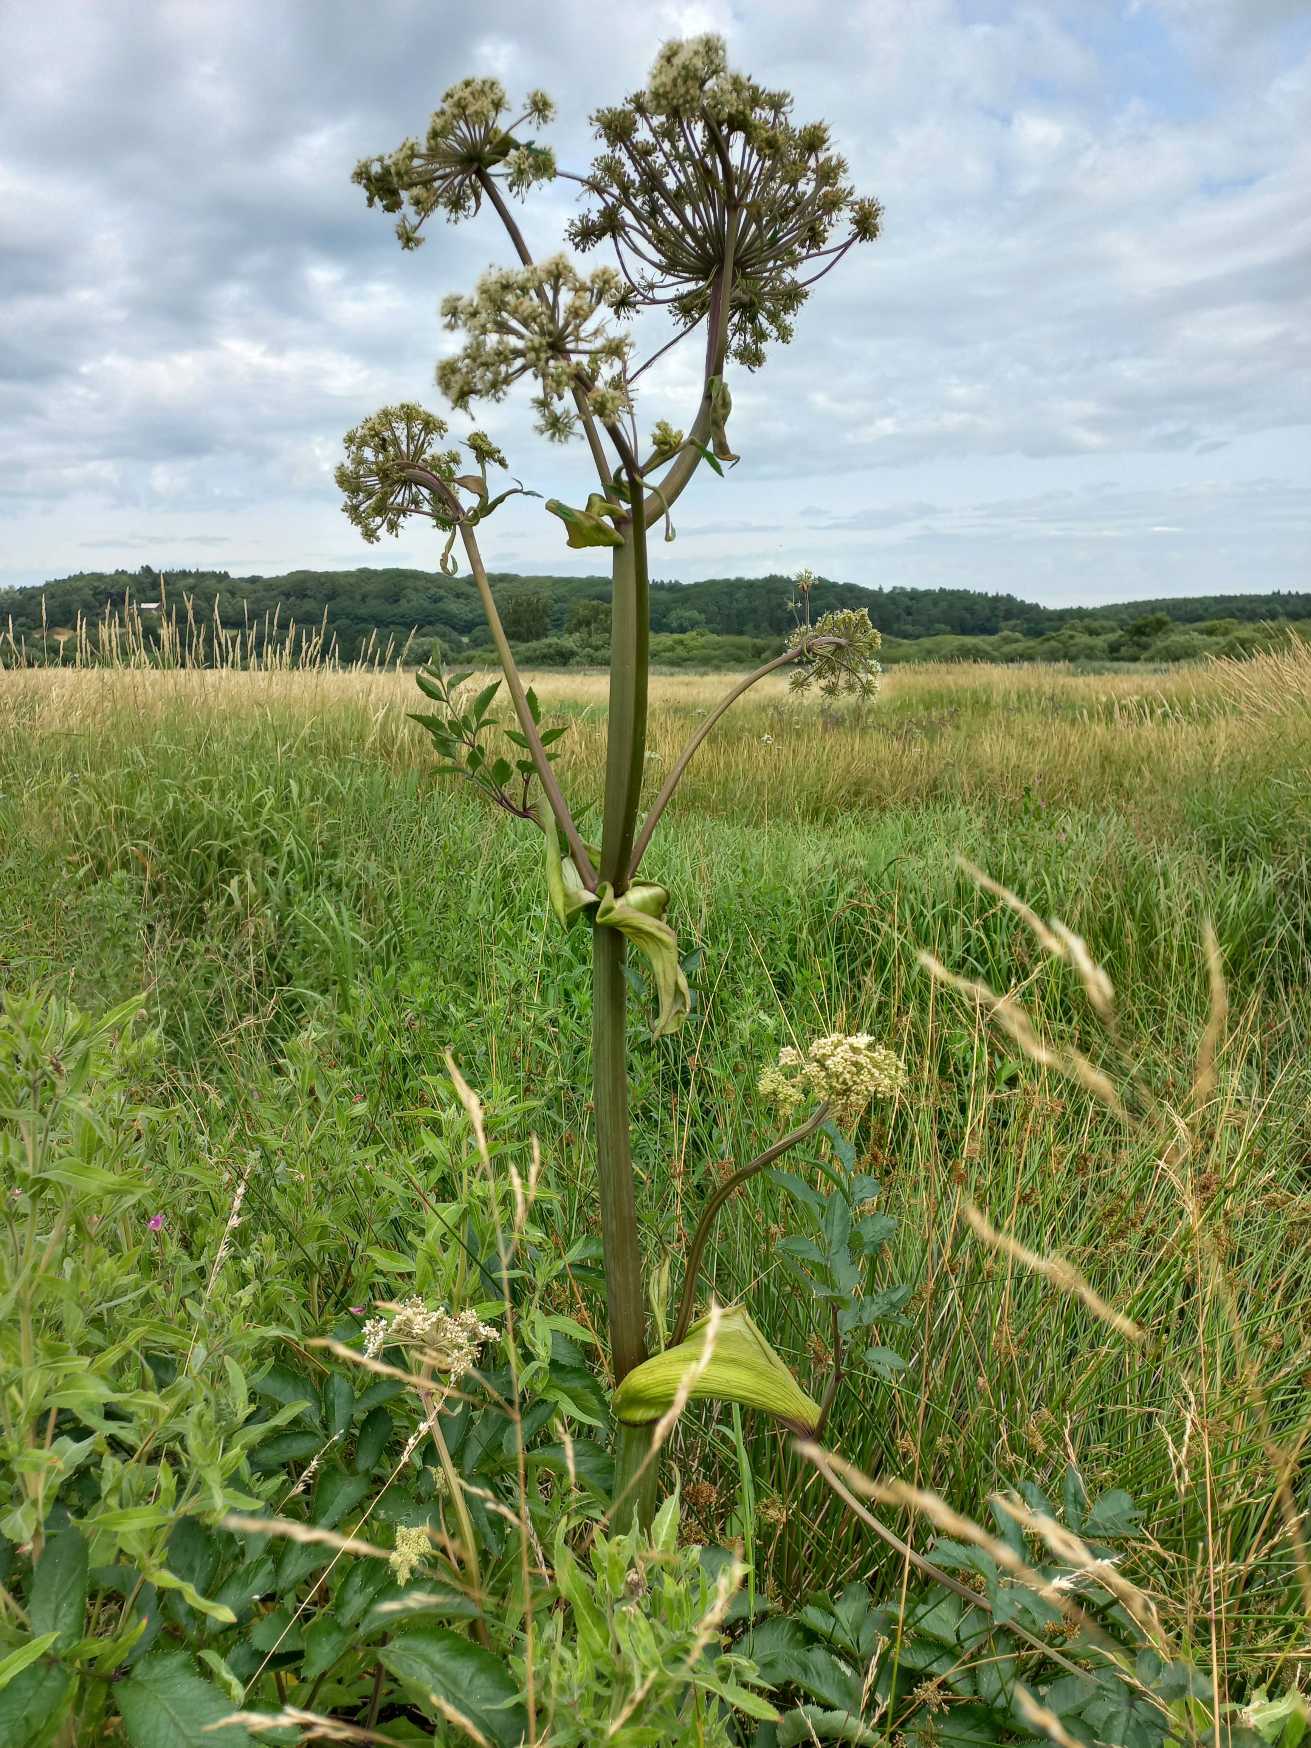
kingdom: Plantae
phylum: Tracheophyta
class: Magnoliopsida
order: Apiales
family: Apiaceae
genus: Angelica
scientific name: Angelica sylvestris
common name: Angelik
